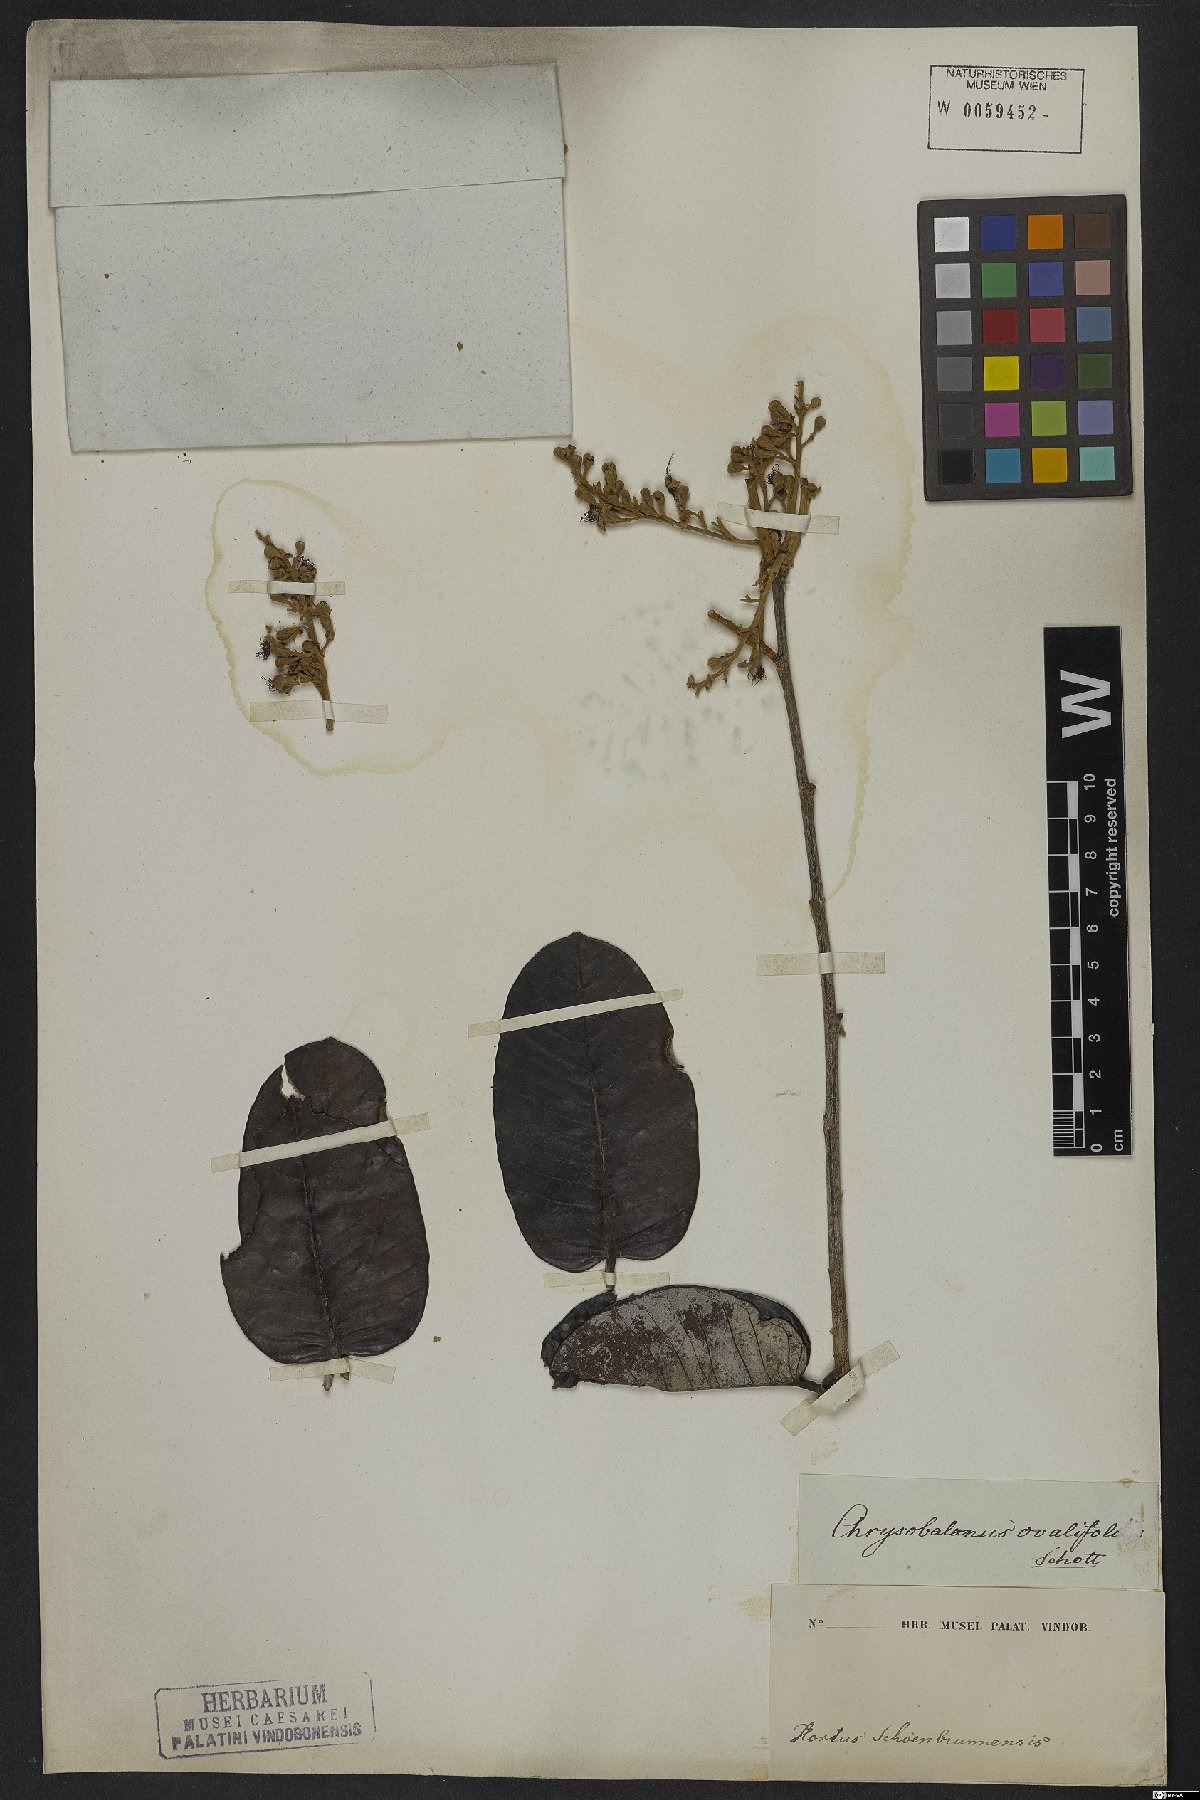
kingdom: Plantae
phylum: Tracheophyta
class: Magnoliopsida
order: Malpighiales
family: Chrysobalanaceae
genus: Couepia
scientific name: Couepia ovalifolia
